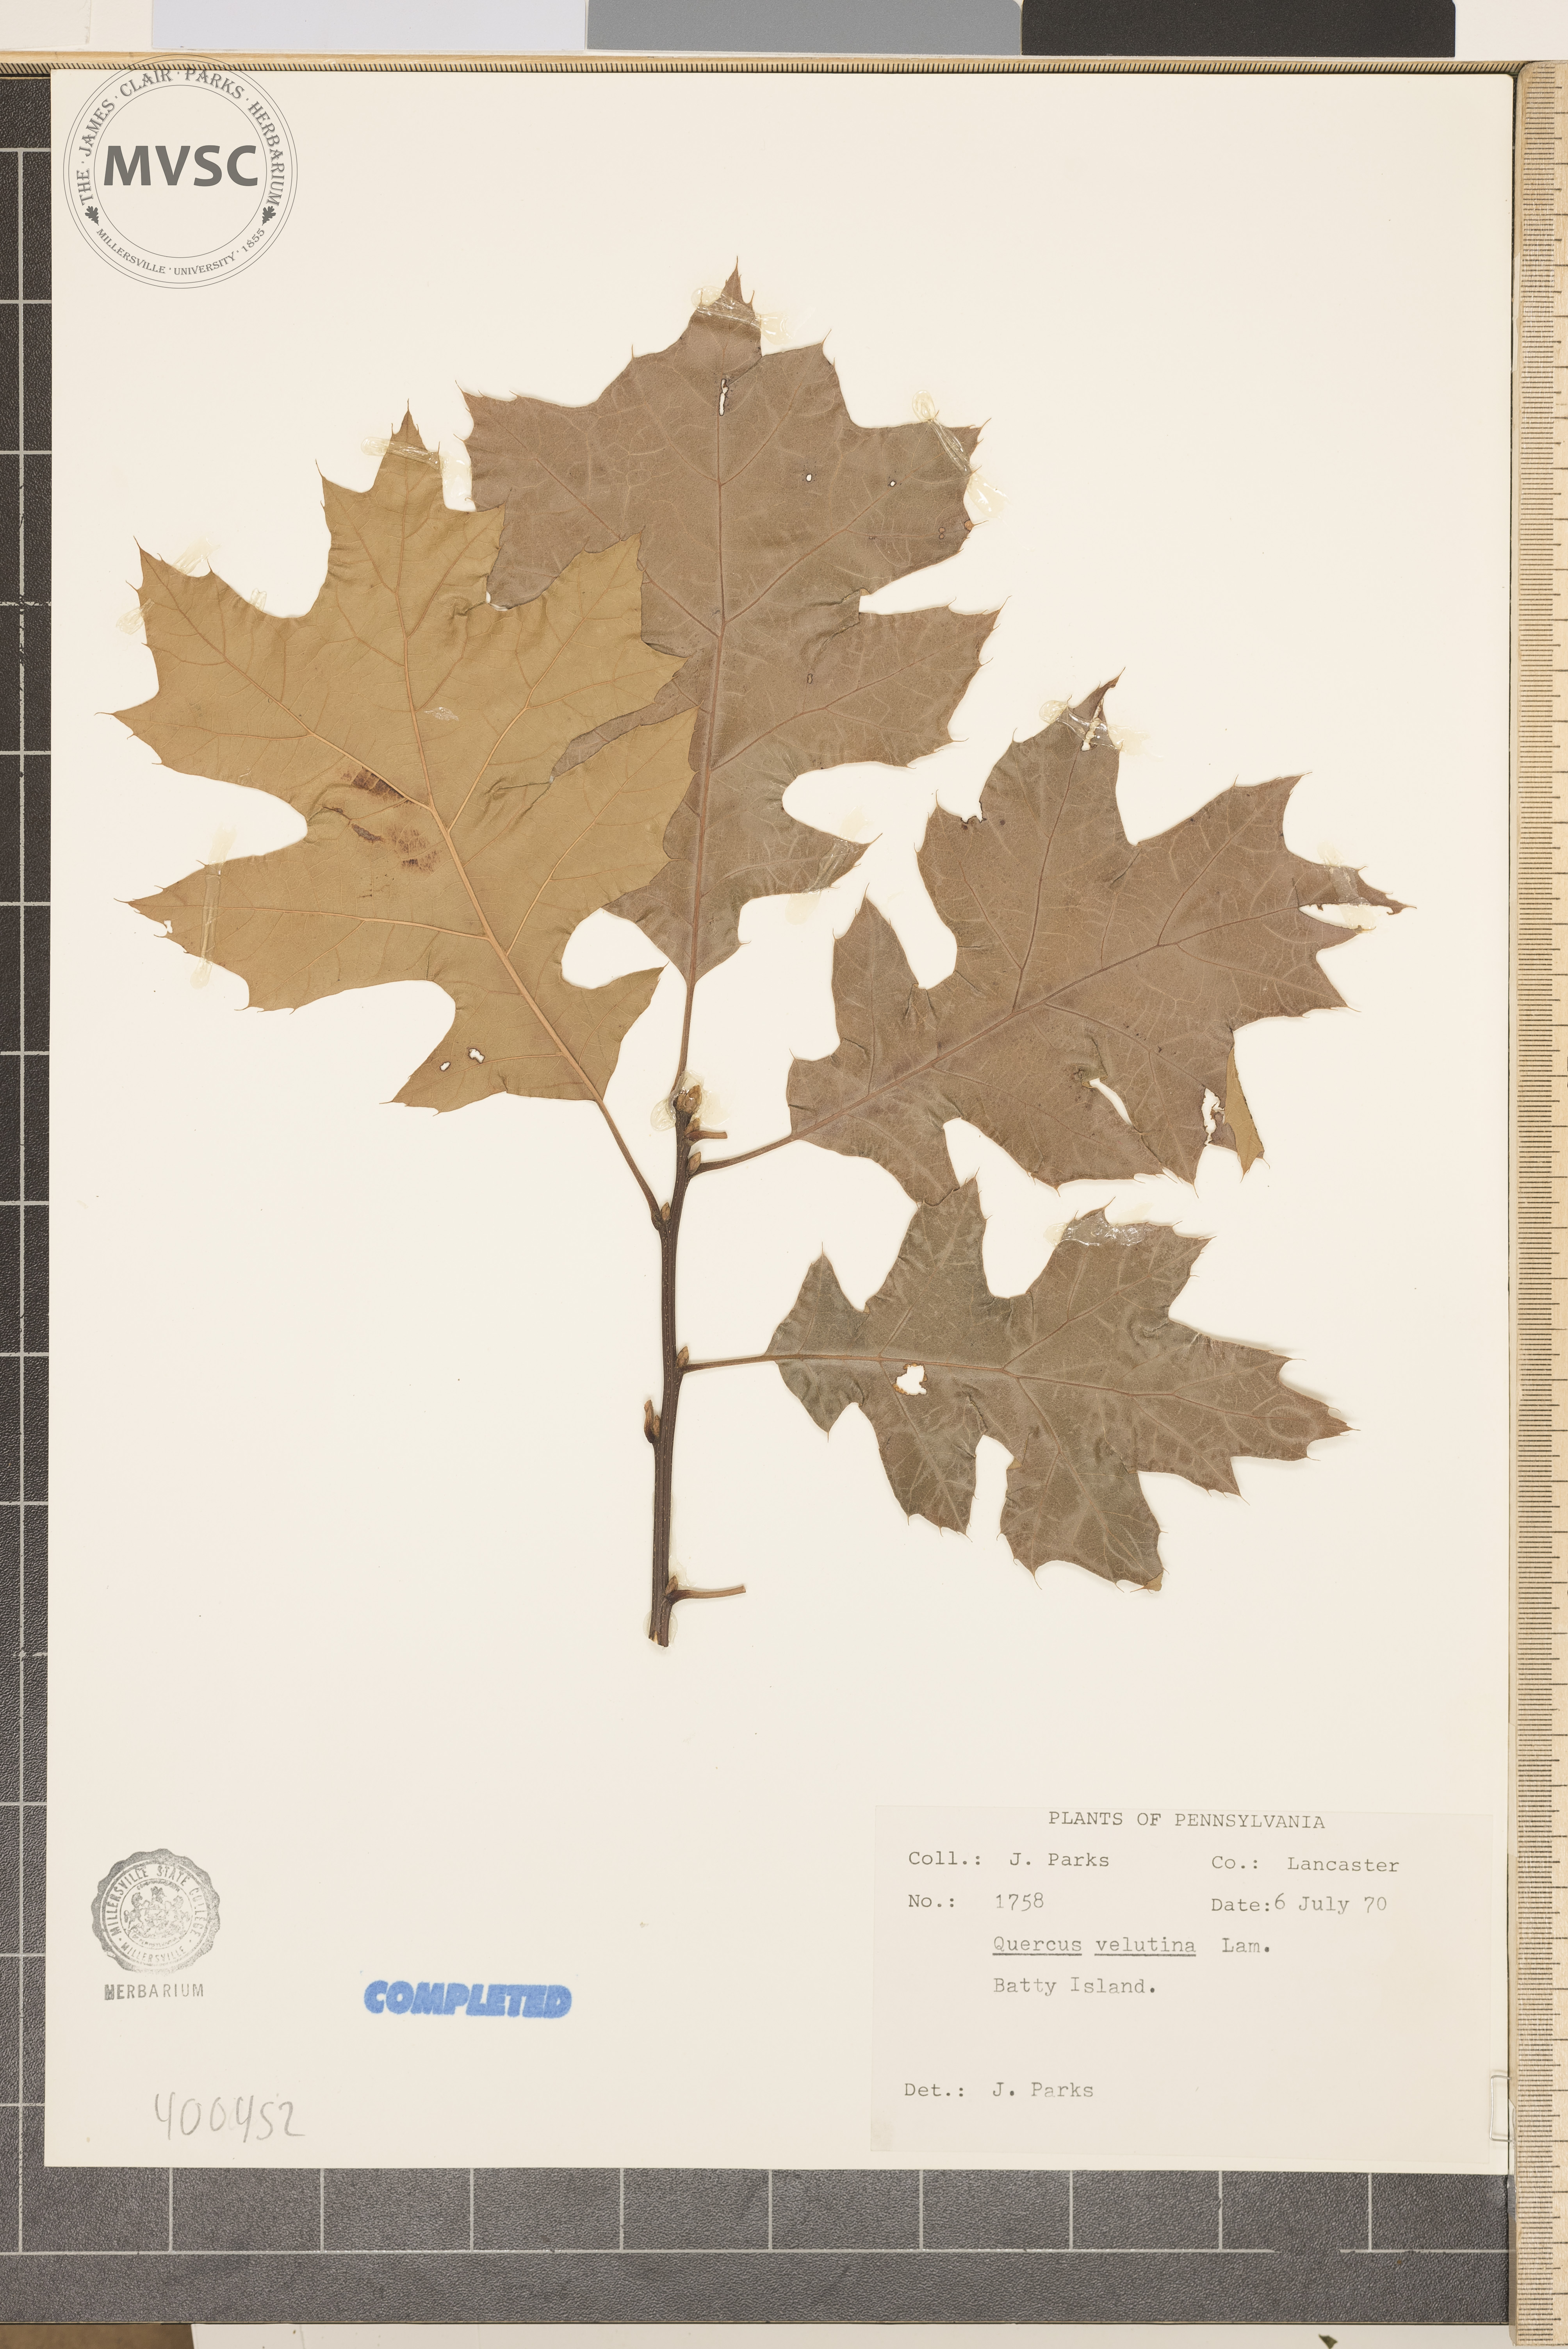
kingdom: Plantae
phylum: Tracheophyta
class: Magnoliopsida
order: Fagales
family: Fagaceae
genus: Quercus
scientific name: Quercus velutina
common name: black oak
